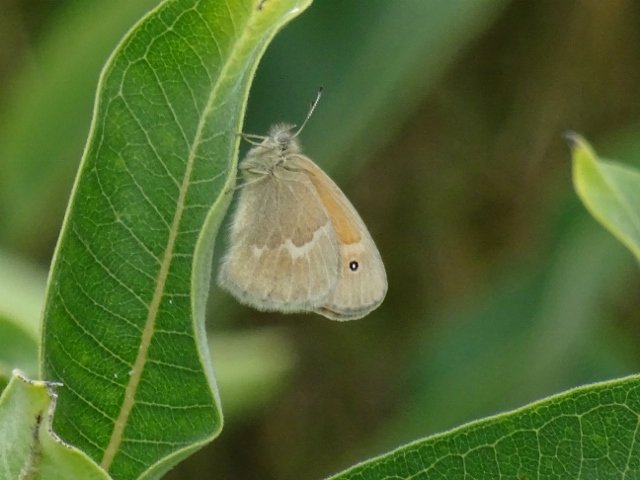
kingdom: Animalia
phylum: Arthropoda
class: Insecta
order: Lepidoptera
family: Nymphalidae
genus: Coenonympha
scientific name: Coenonympha tullia
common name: Large Heath
